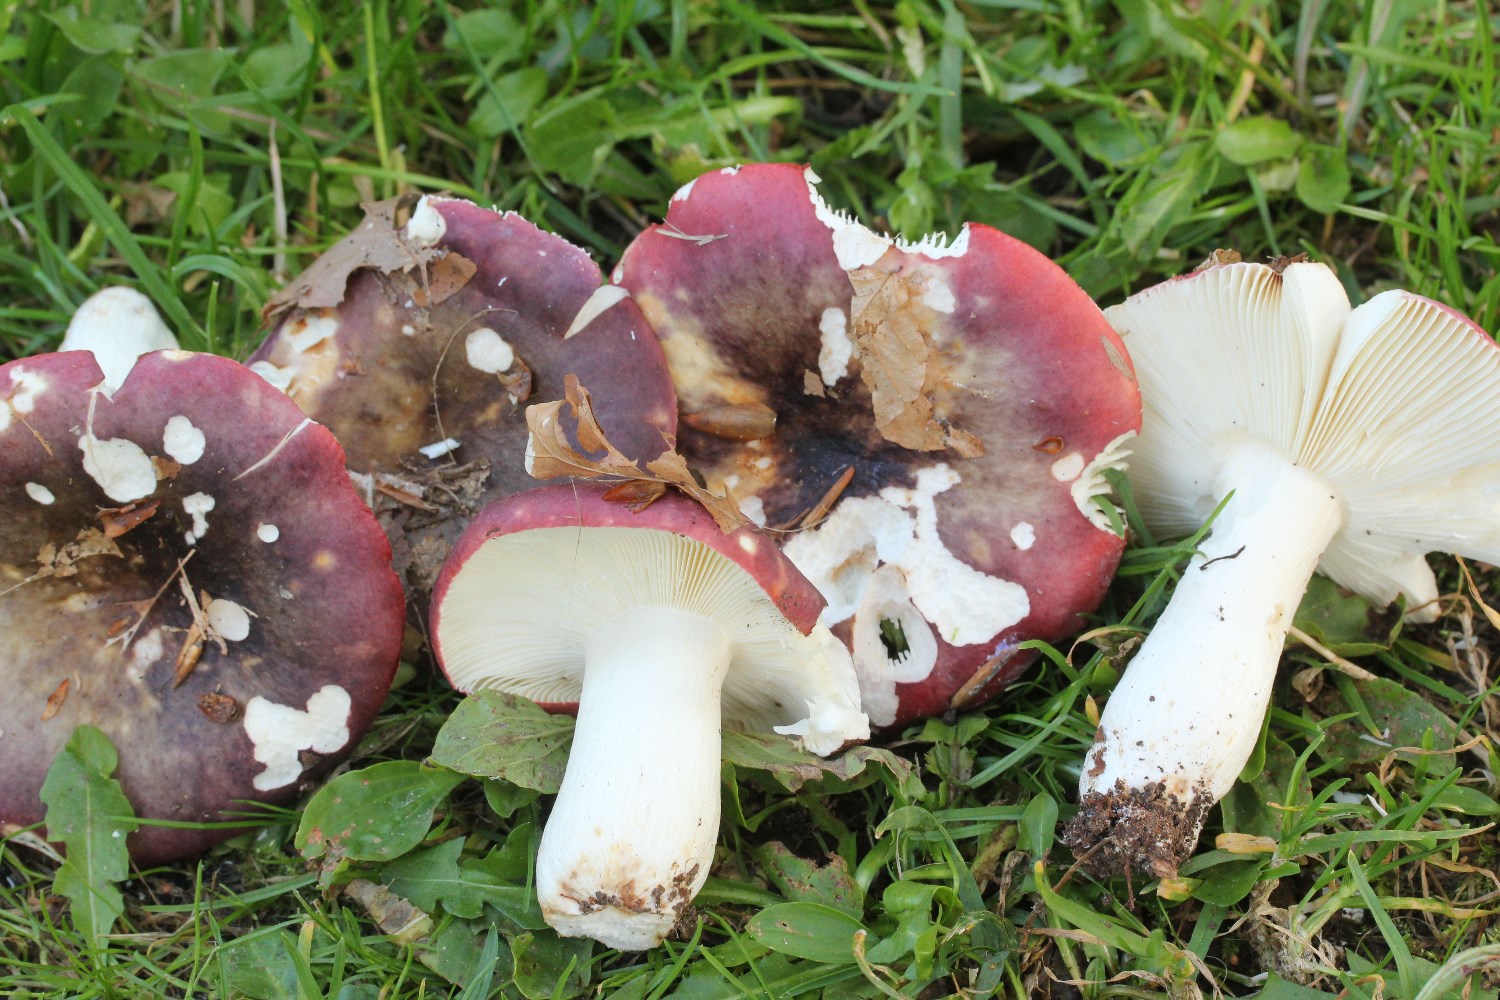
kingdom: Fungi
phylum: Basidiomycota
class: Agaricomycetes
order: Russulales
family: Russulaceae
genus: Russula
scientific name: Russula atropurpurea
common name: purpurbroget skørhat
